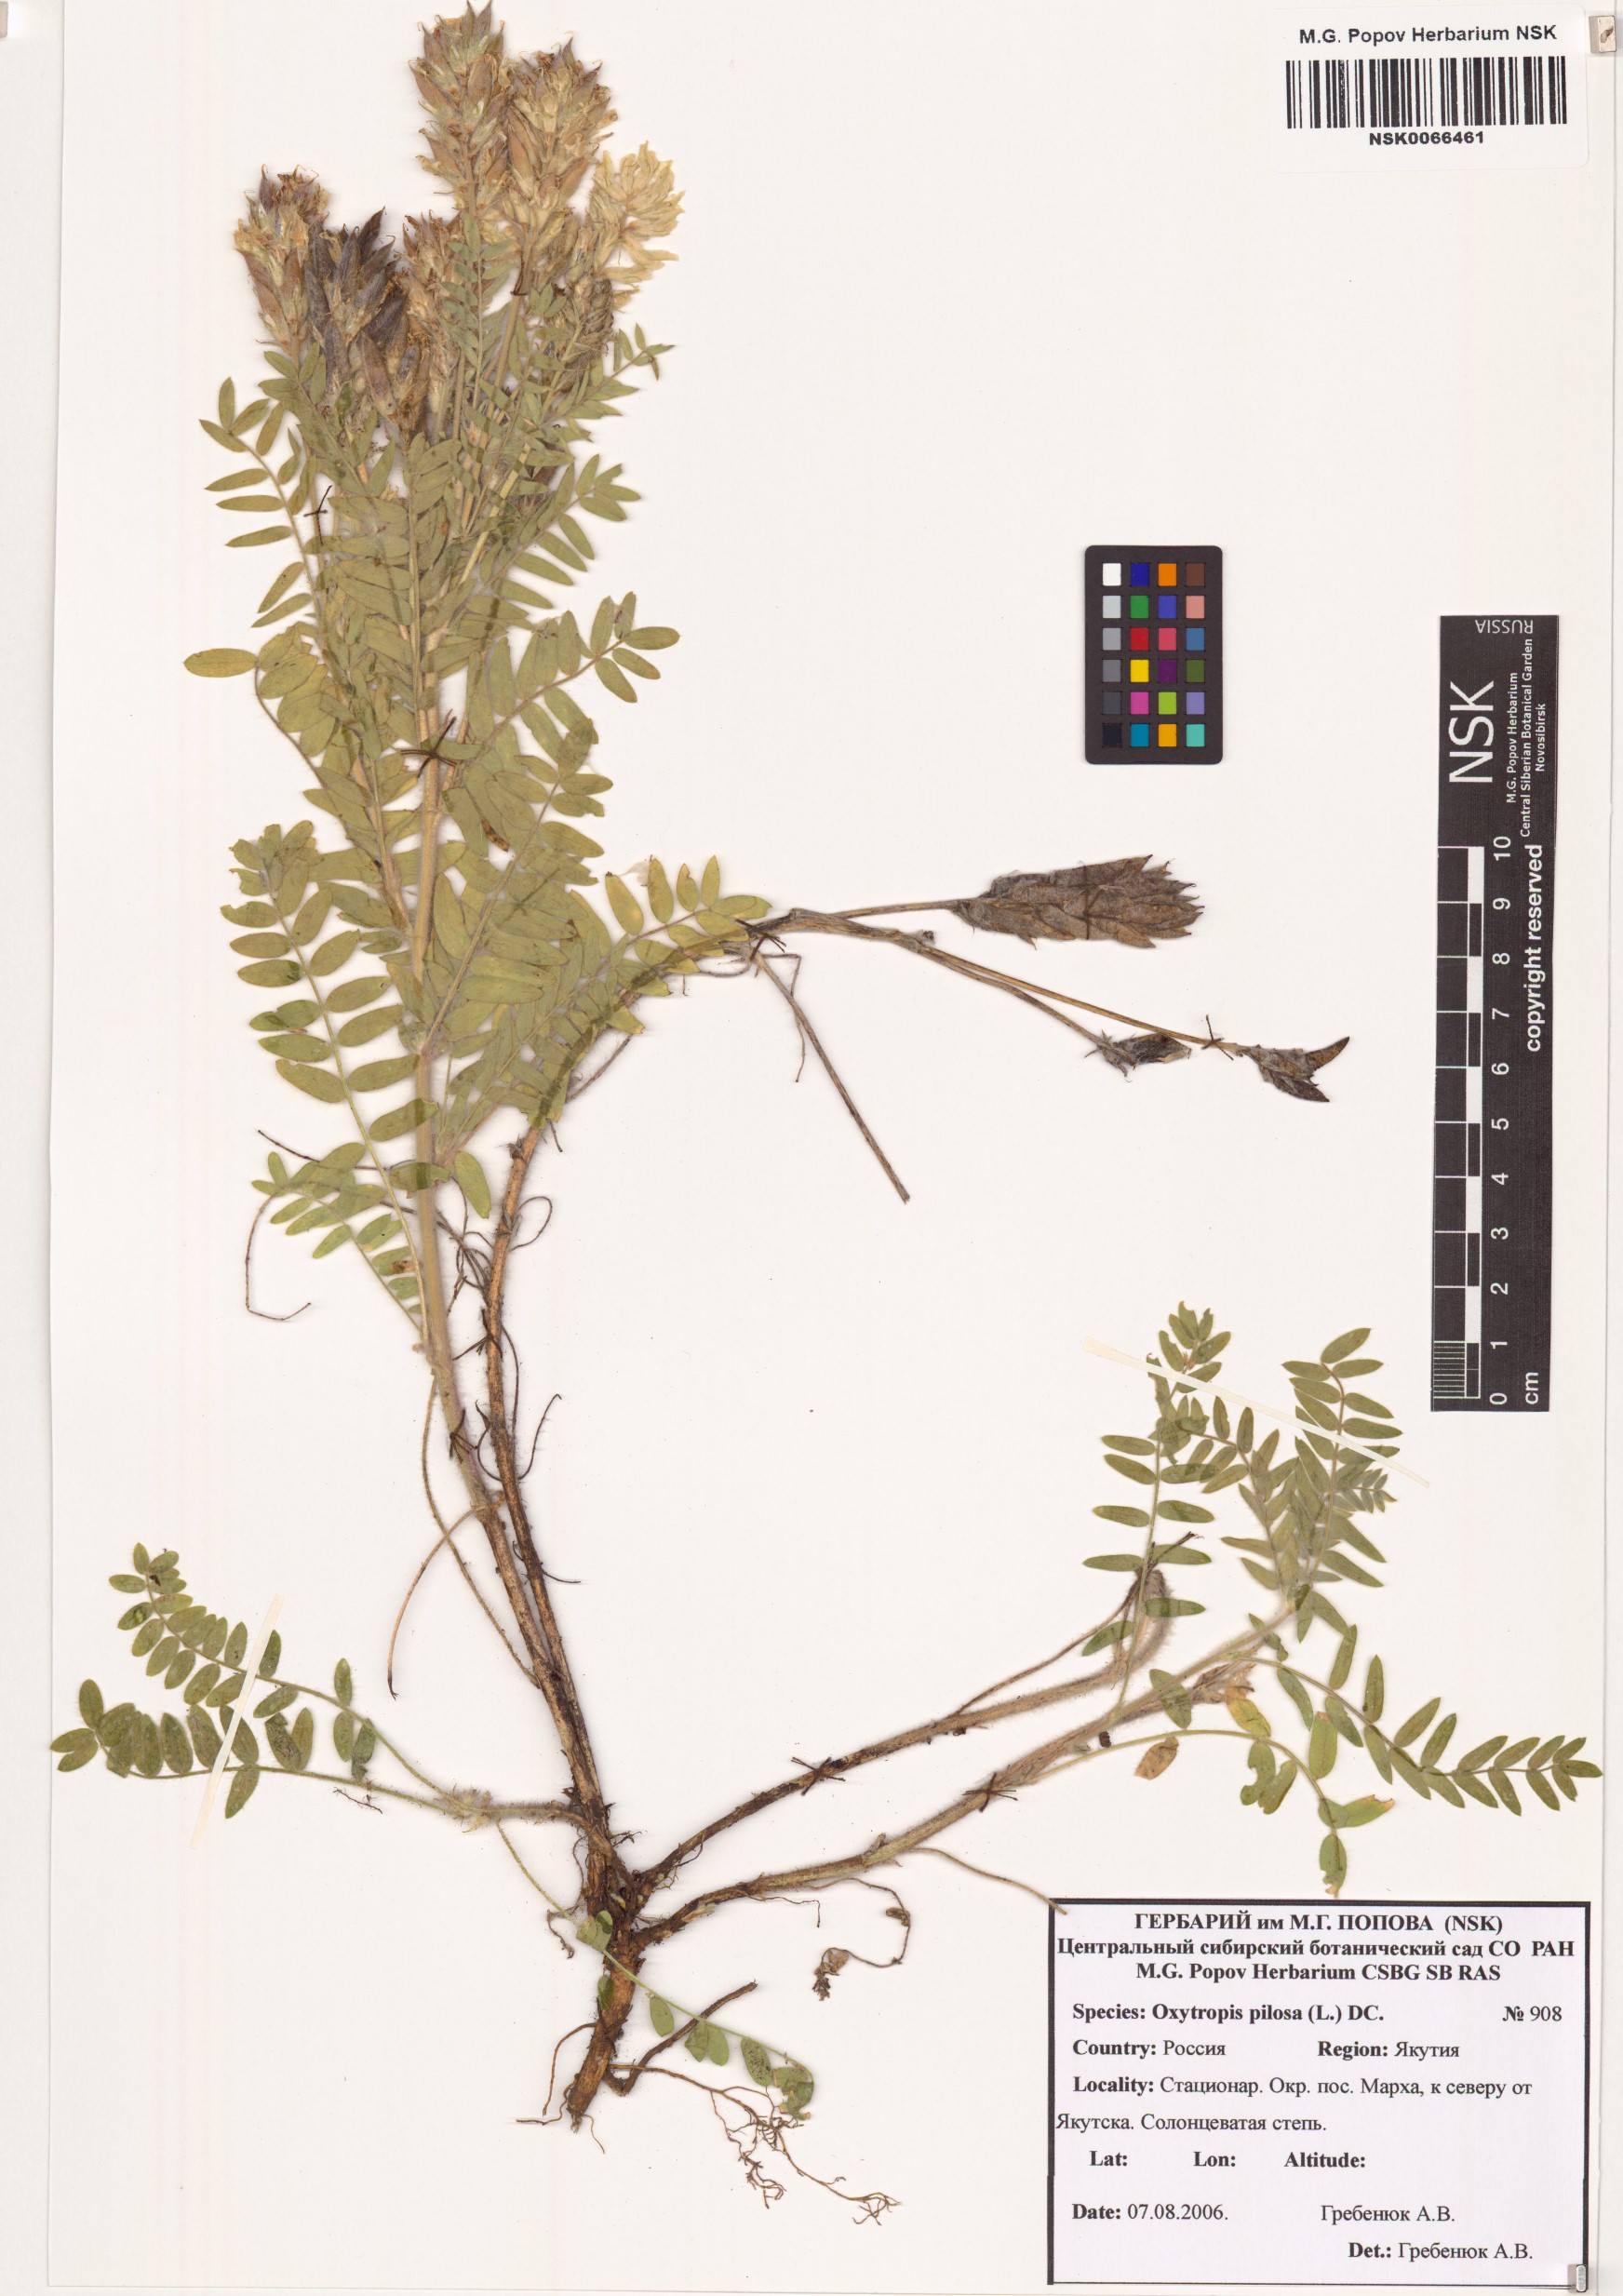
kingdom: Plantae
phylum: Tracheophyta
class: Magnoliopsida
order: Fabales
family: Fabaceae
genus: Oxytropis
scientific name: Oxytropis pilosa
